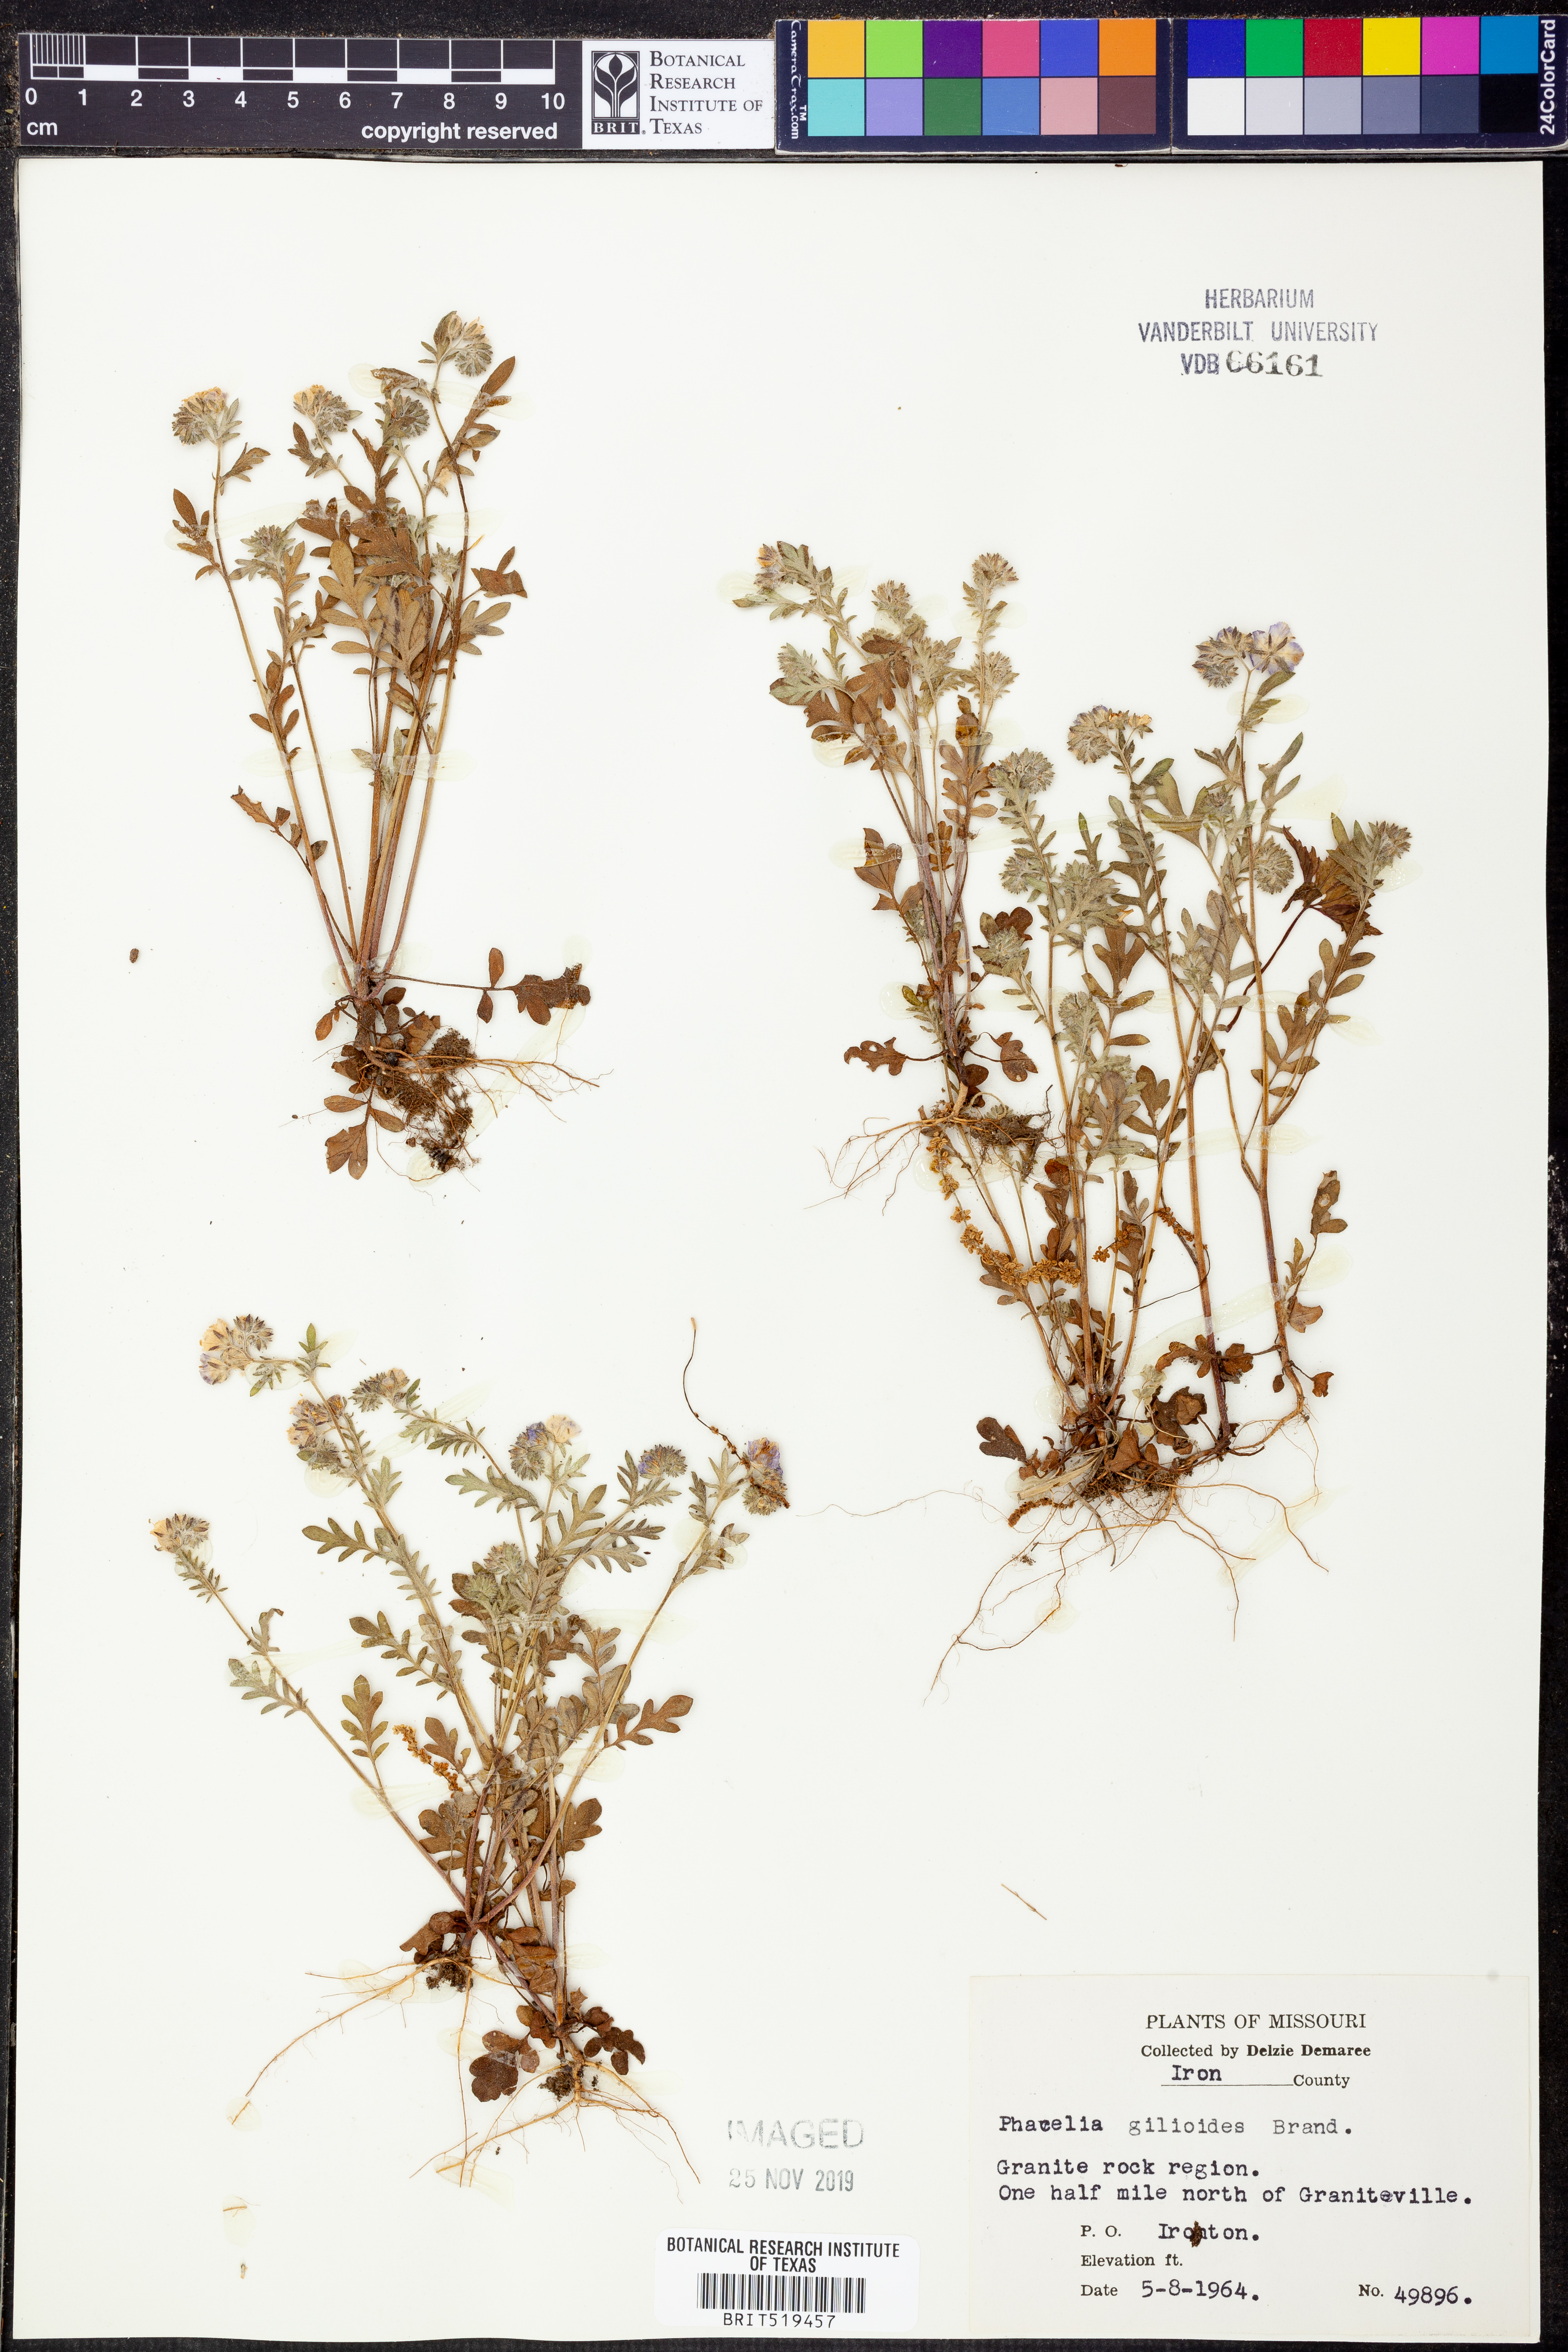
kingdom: Plantae
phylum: Tracheophyta
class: Magnoliopsida
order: Boraginales
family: Hydrophyllaceae
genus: Phacelia
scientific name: Phacelia gilioides
